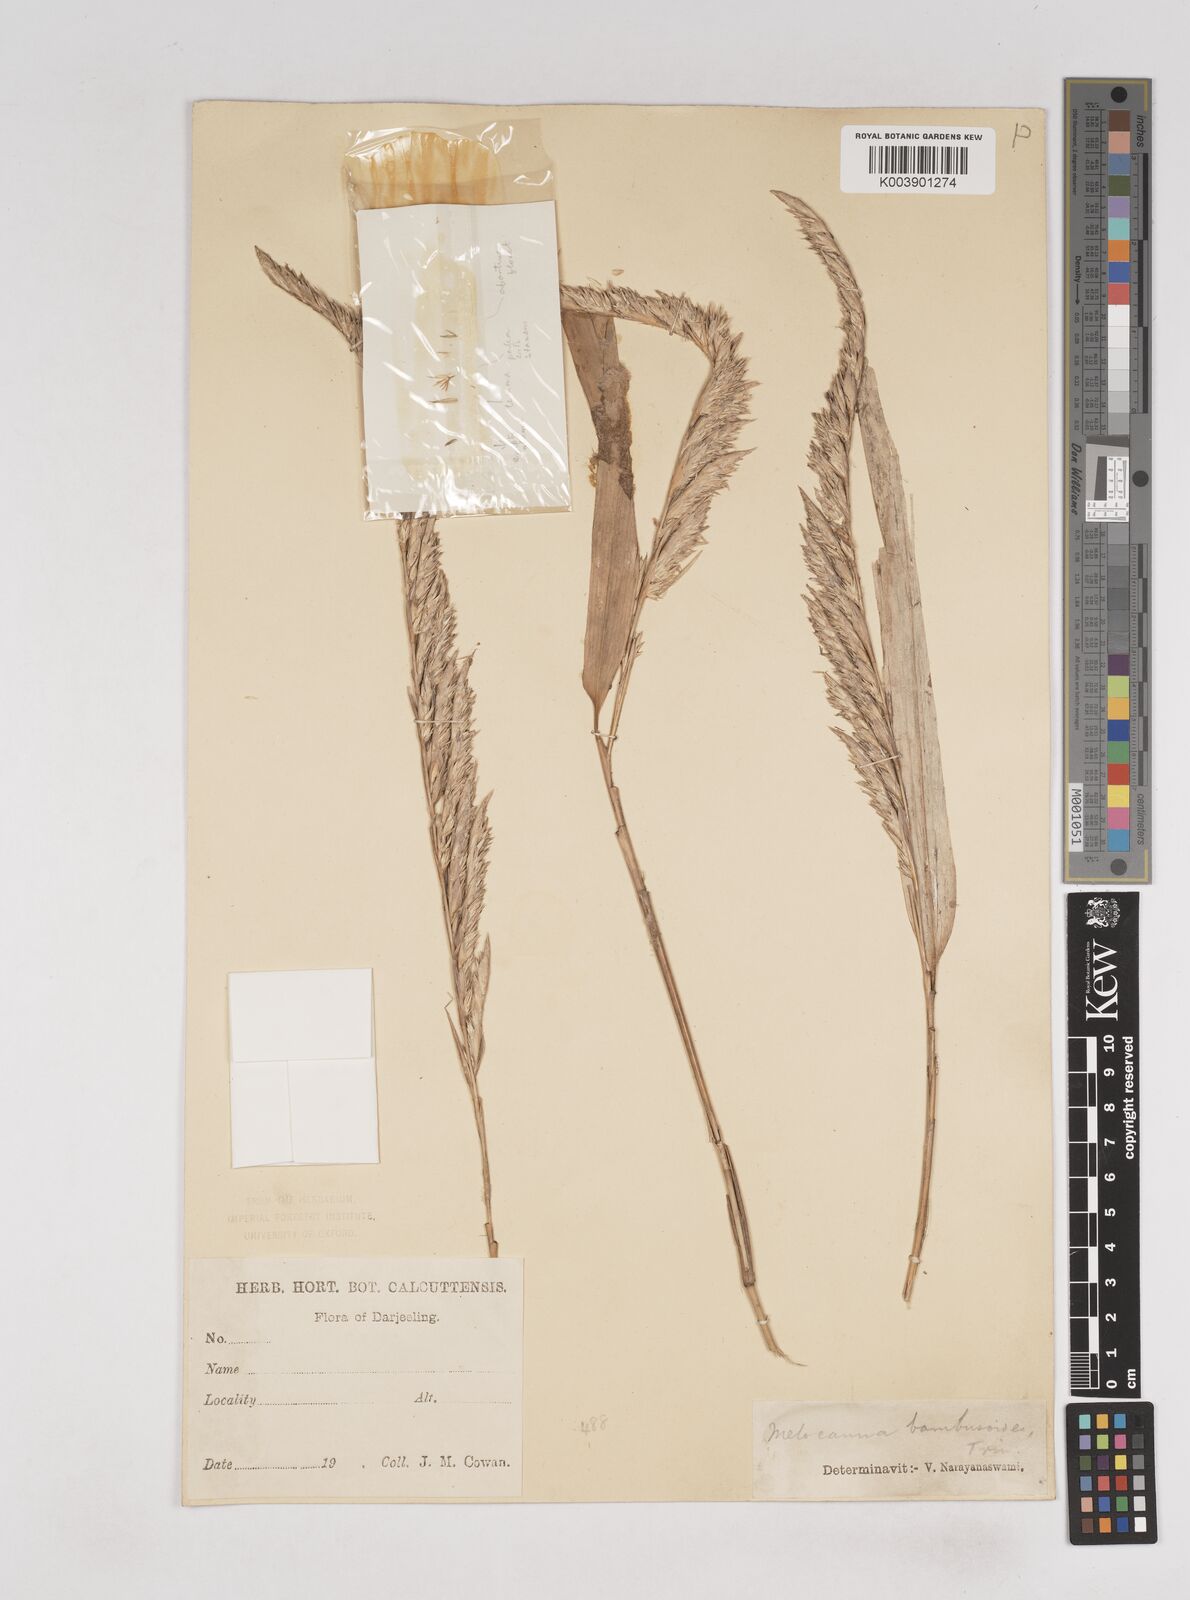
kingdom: Plantae
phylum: Tracheophyta
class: Liliopsida
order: Poales
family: Poaceae
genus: Melocanna
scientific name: Melocanna baccifera
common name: Berry bamboo
